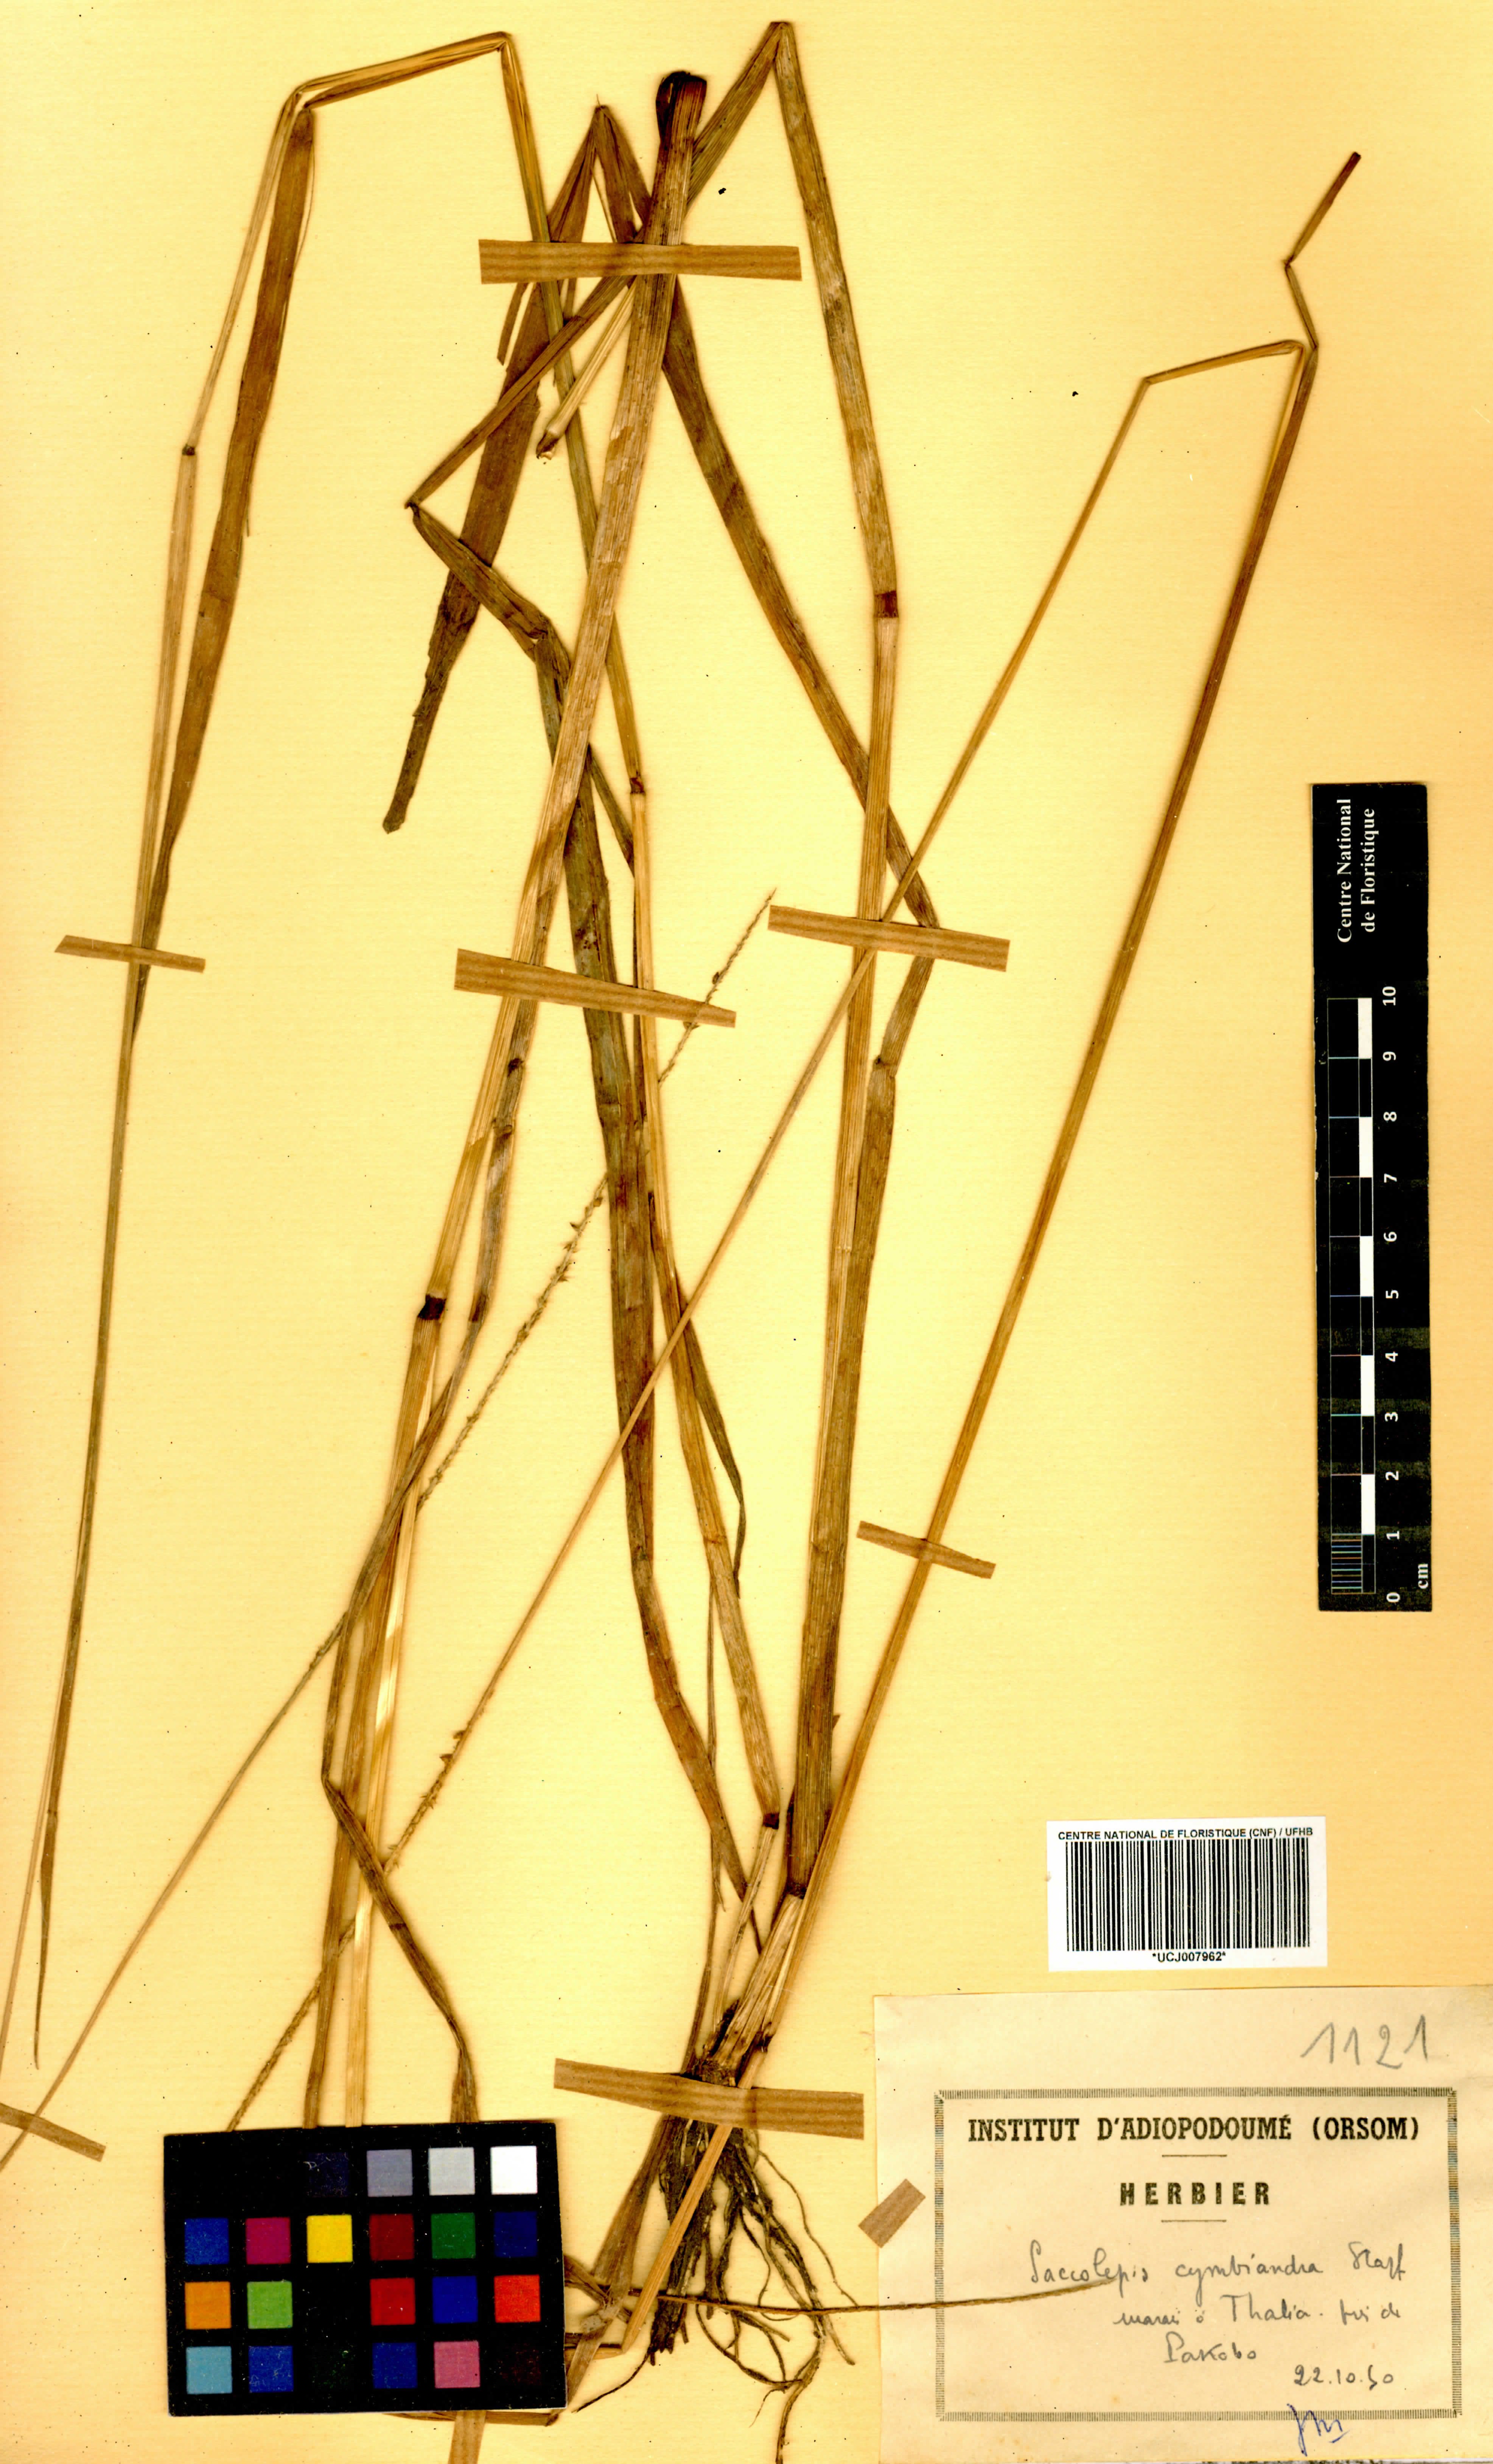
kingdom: Plantae
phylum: Tracheophyta
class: Liliopsida
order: Poales
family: Poaceae
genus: Sacciolepis
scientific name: Sacciolepis cymbiandra
